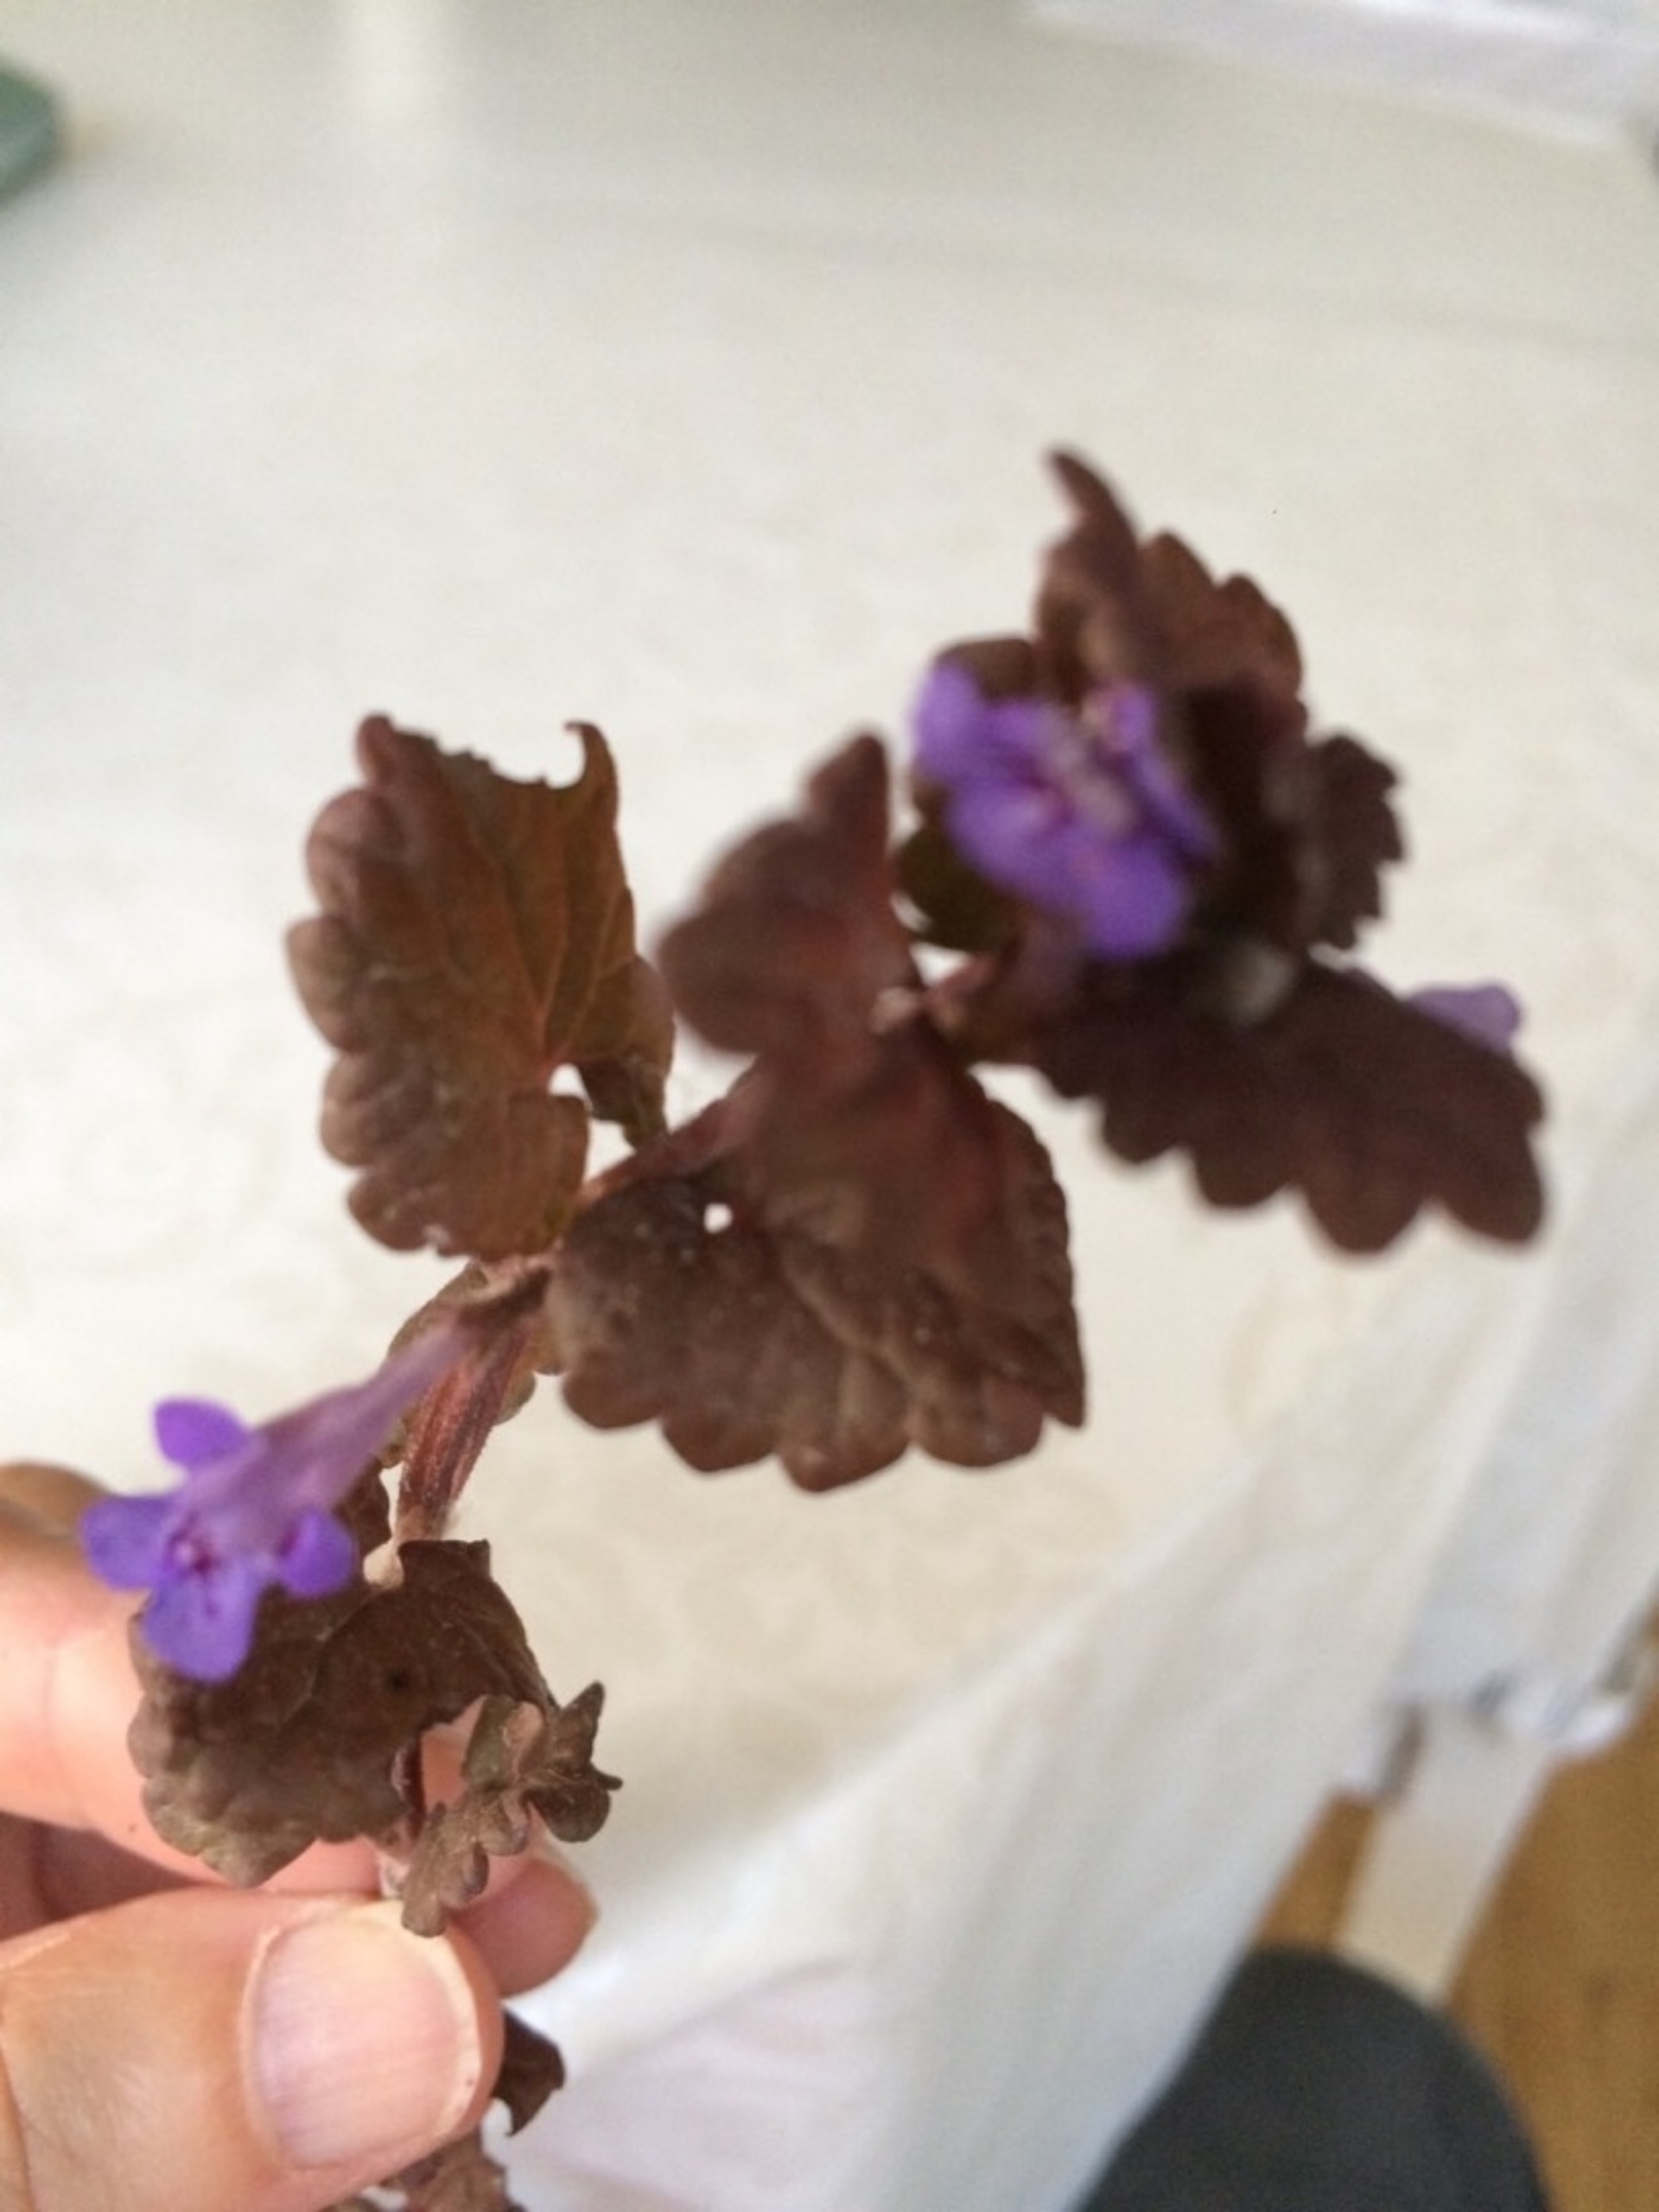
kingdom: Plantae
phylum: Tracheophyta
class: Magnoliopsida
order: Lamiales
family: Lamiaceae
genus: Glechoma
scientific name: Glechoma hederacea
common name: Korsknap
